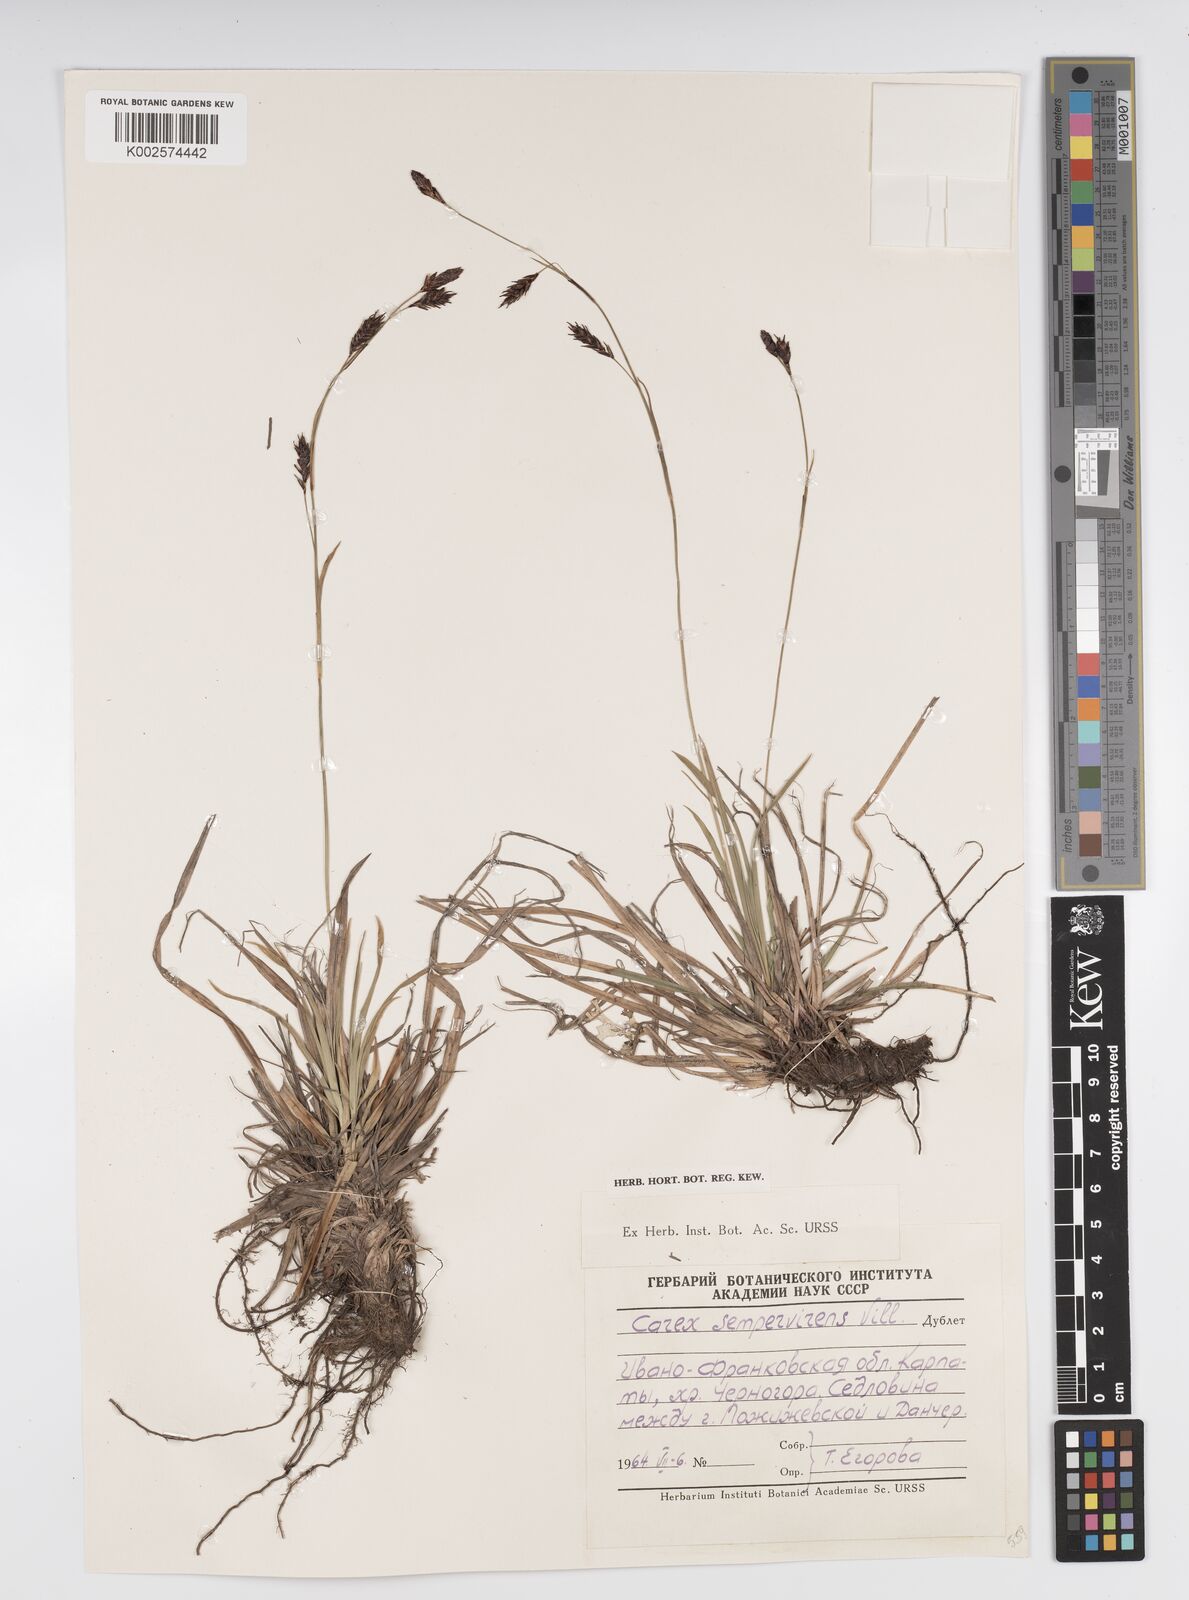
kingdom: Plantae
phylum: Tracheophyta
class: Liliopsida
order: Poales
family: Cyperaceae
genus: Carex
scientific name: Carex sempervirens
